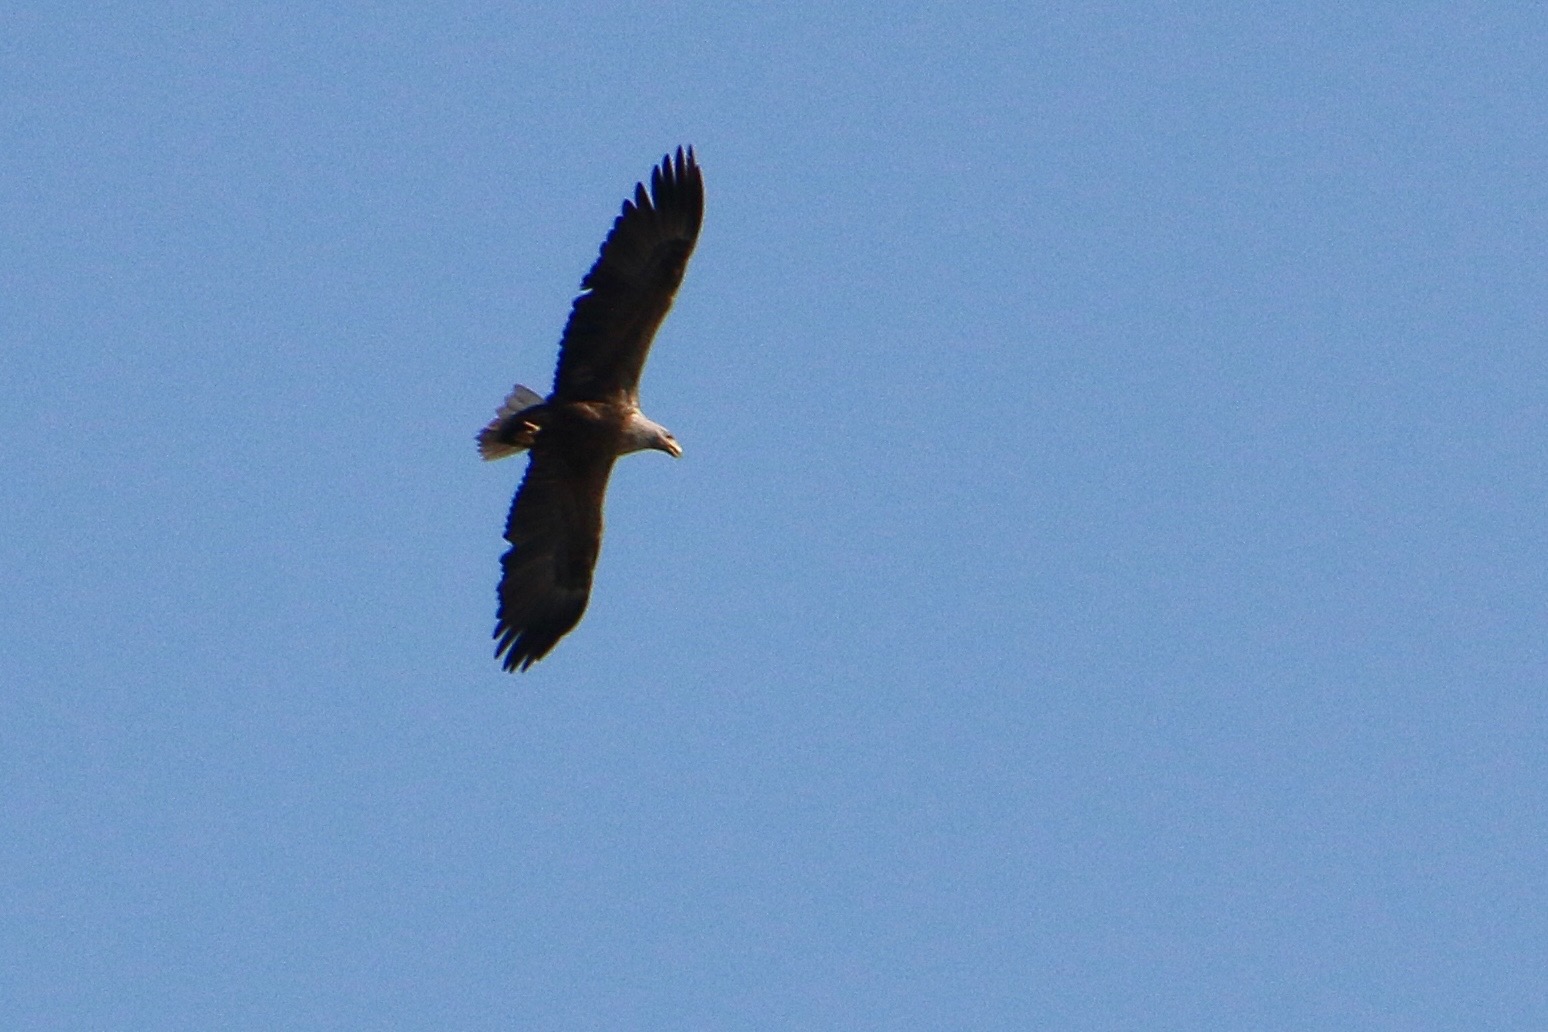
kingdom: Animalia
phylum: Chordata
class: Aves
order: Accipitriformes
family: Accipitridae
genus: Haliaeetus
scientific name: Haliaeetus albicilla
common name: Havørn
